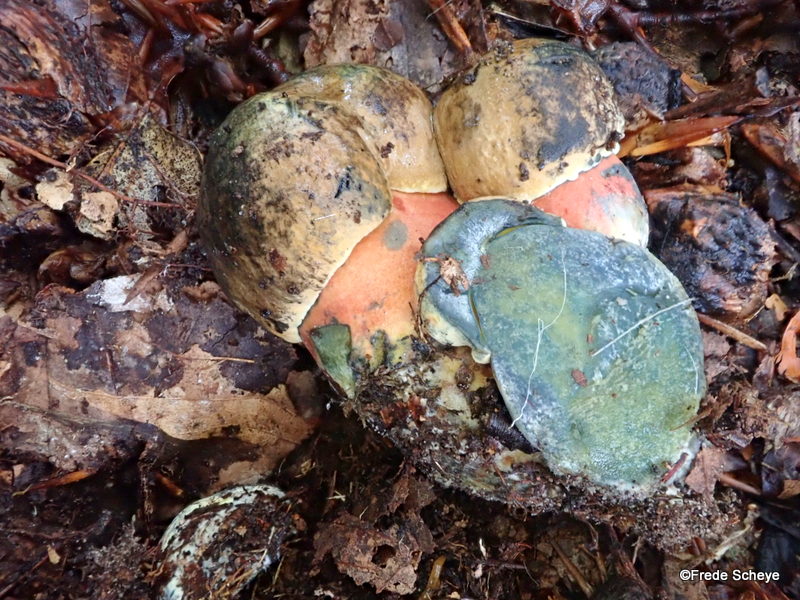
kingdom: Fungi
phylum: Basidiomycota
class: Agaricomycetes
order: Boletales
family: Boletaceae
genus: Neoboletus
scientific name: Neoboletus erythropus
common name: punktstokket indigorørhat
